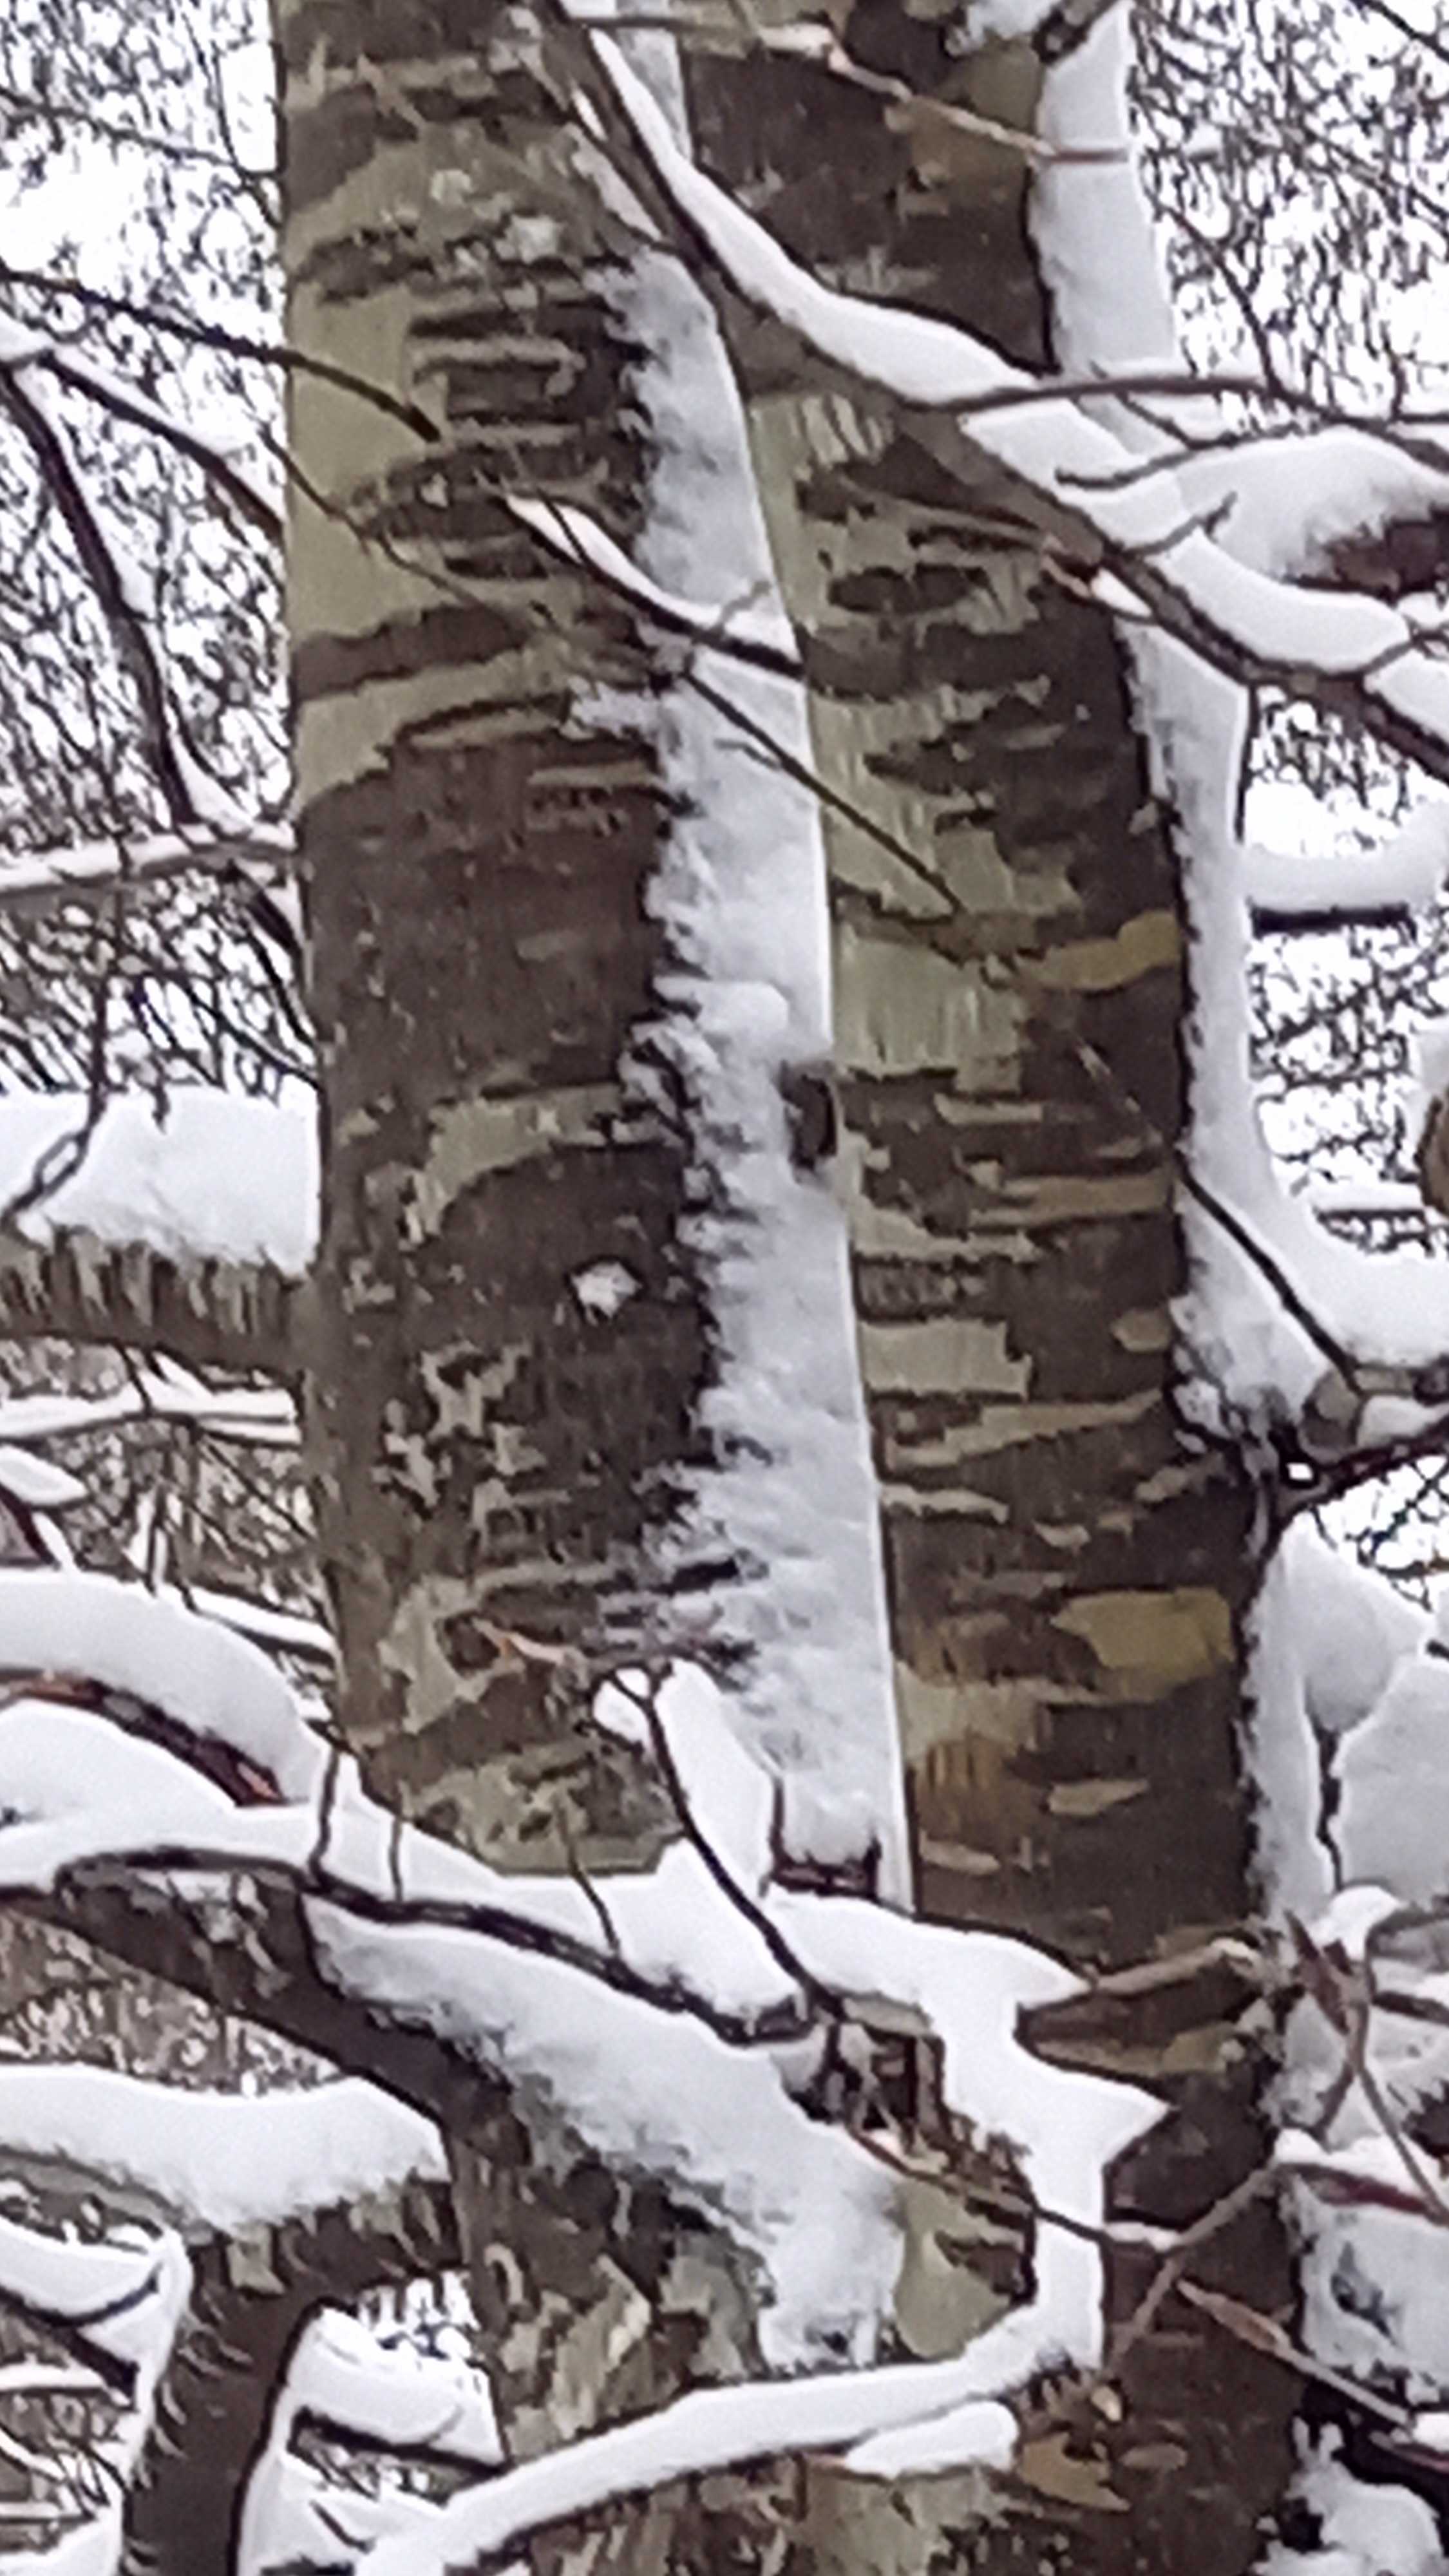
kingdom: Fungi
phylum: Ascomycota
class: Leotiomycetes
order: Rhytismatales
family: Ascodichaenaceae
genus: Ascodichaena
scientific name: Ascodichaena rugosa
